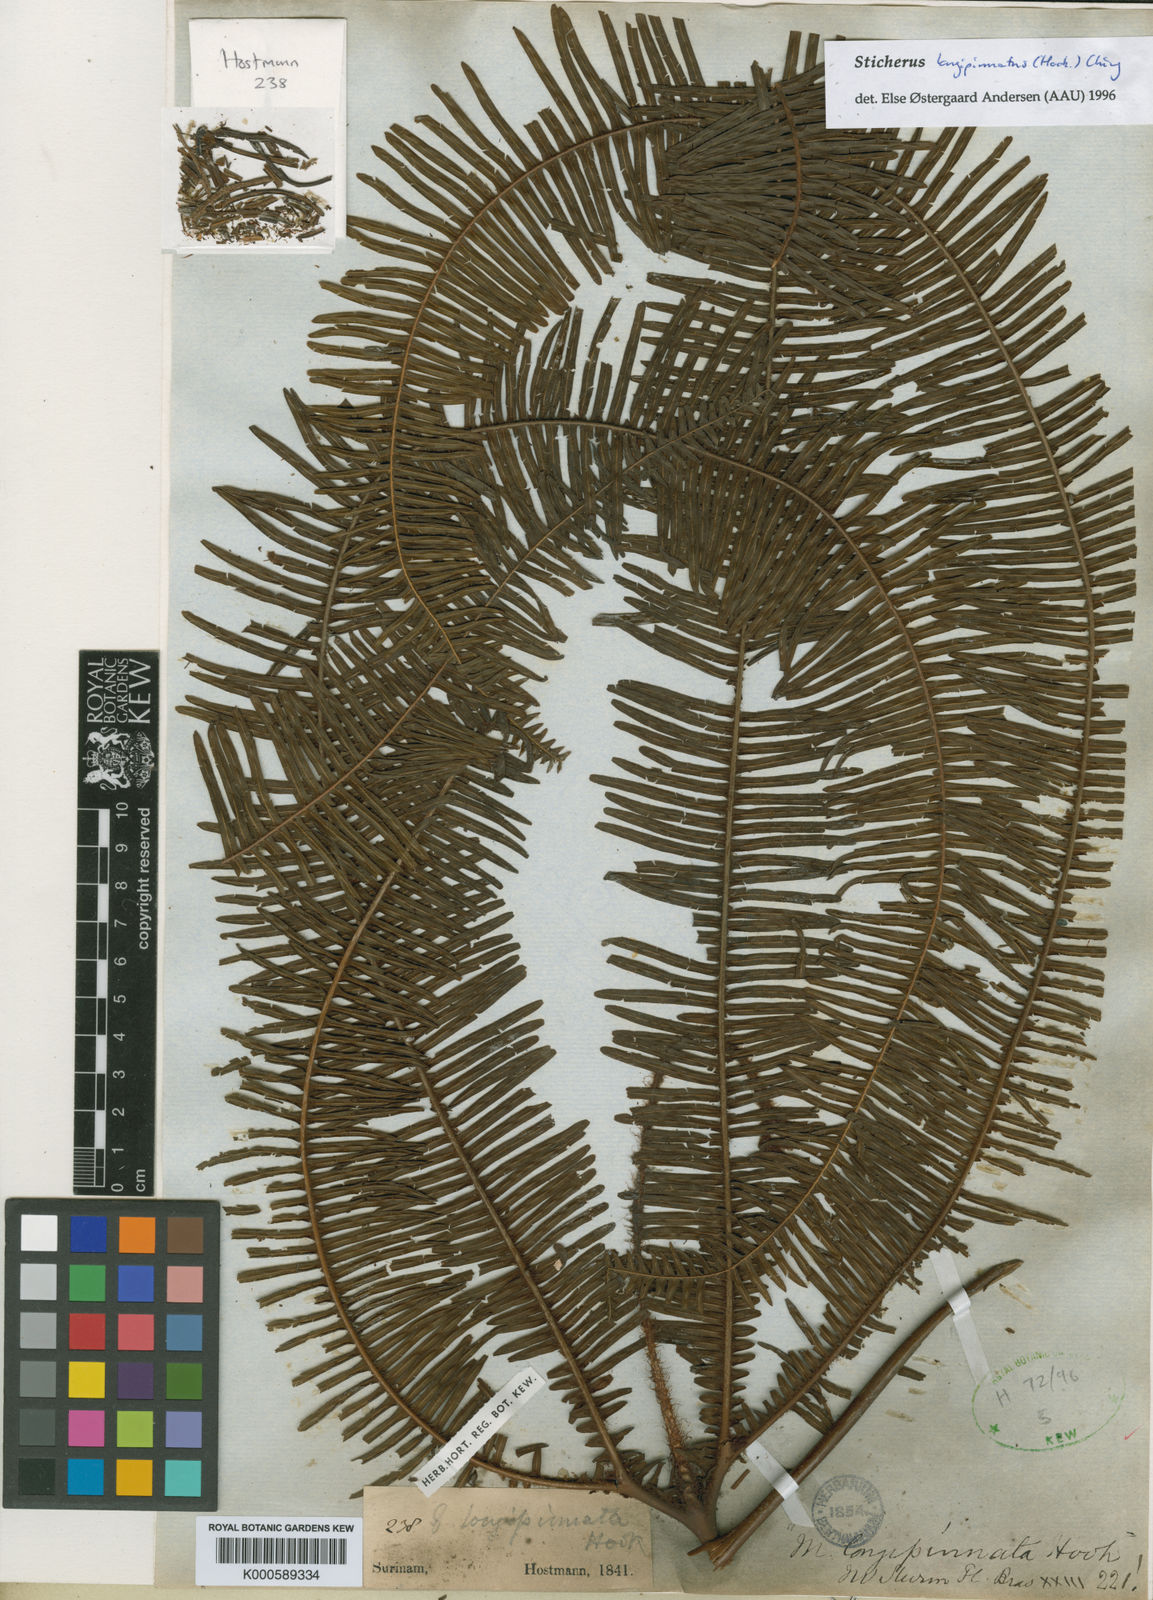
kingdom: Plantae
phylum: Tracheophyta
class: Polypodiopsida
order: Gleicheniales
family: Gleicheniaceae
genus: Sticherus
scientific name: Sticherus longipinnatus
